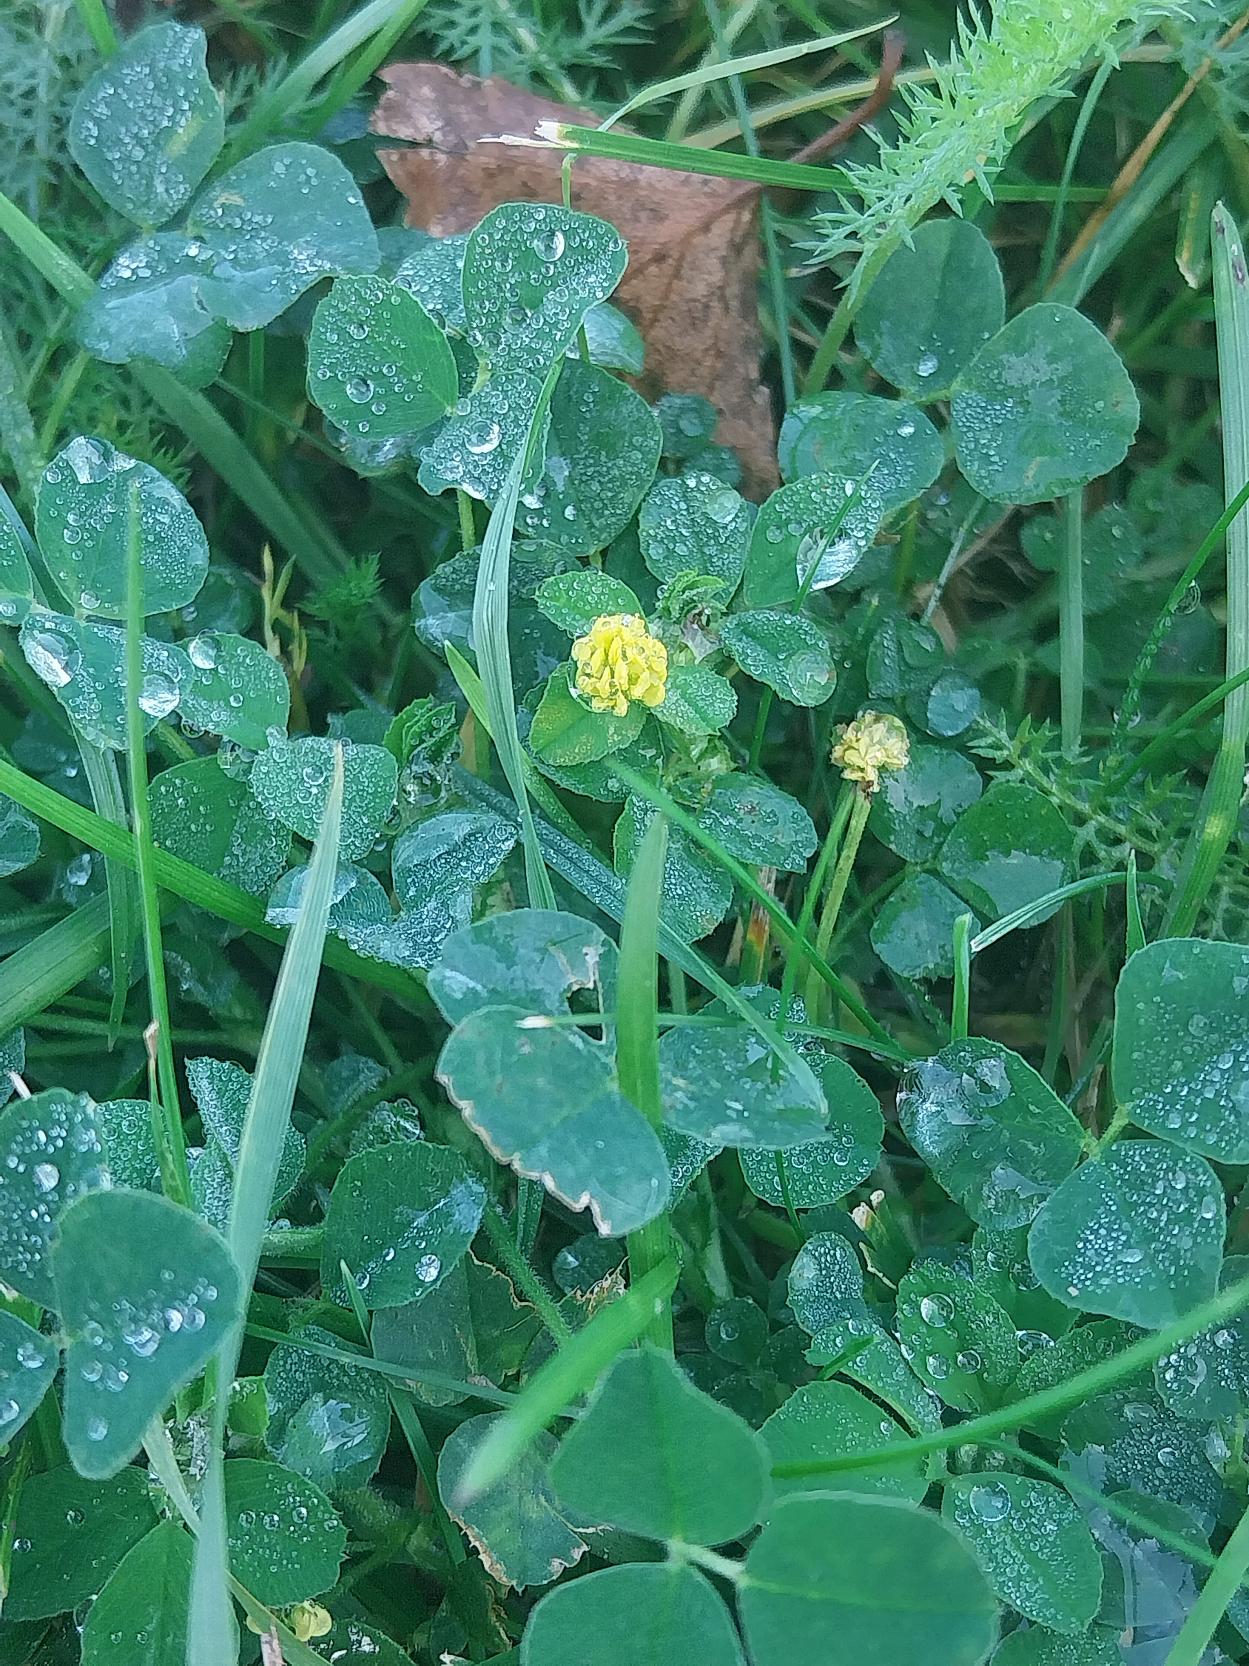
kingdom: Plantae
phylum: Tracheophyta
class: Magnoliopsida
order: Fabales
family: Fabaceae
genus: Medicago
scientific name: Medicago lupulina
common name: Humle-sneglebælg
